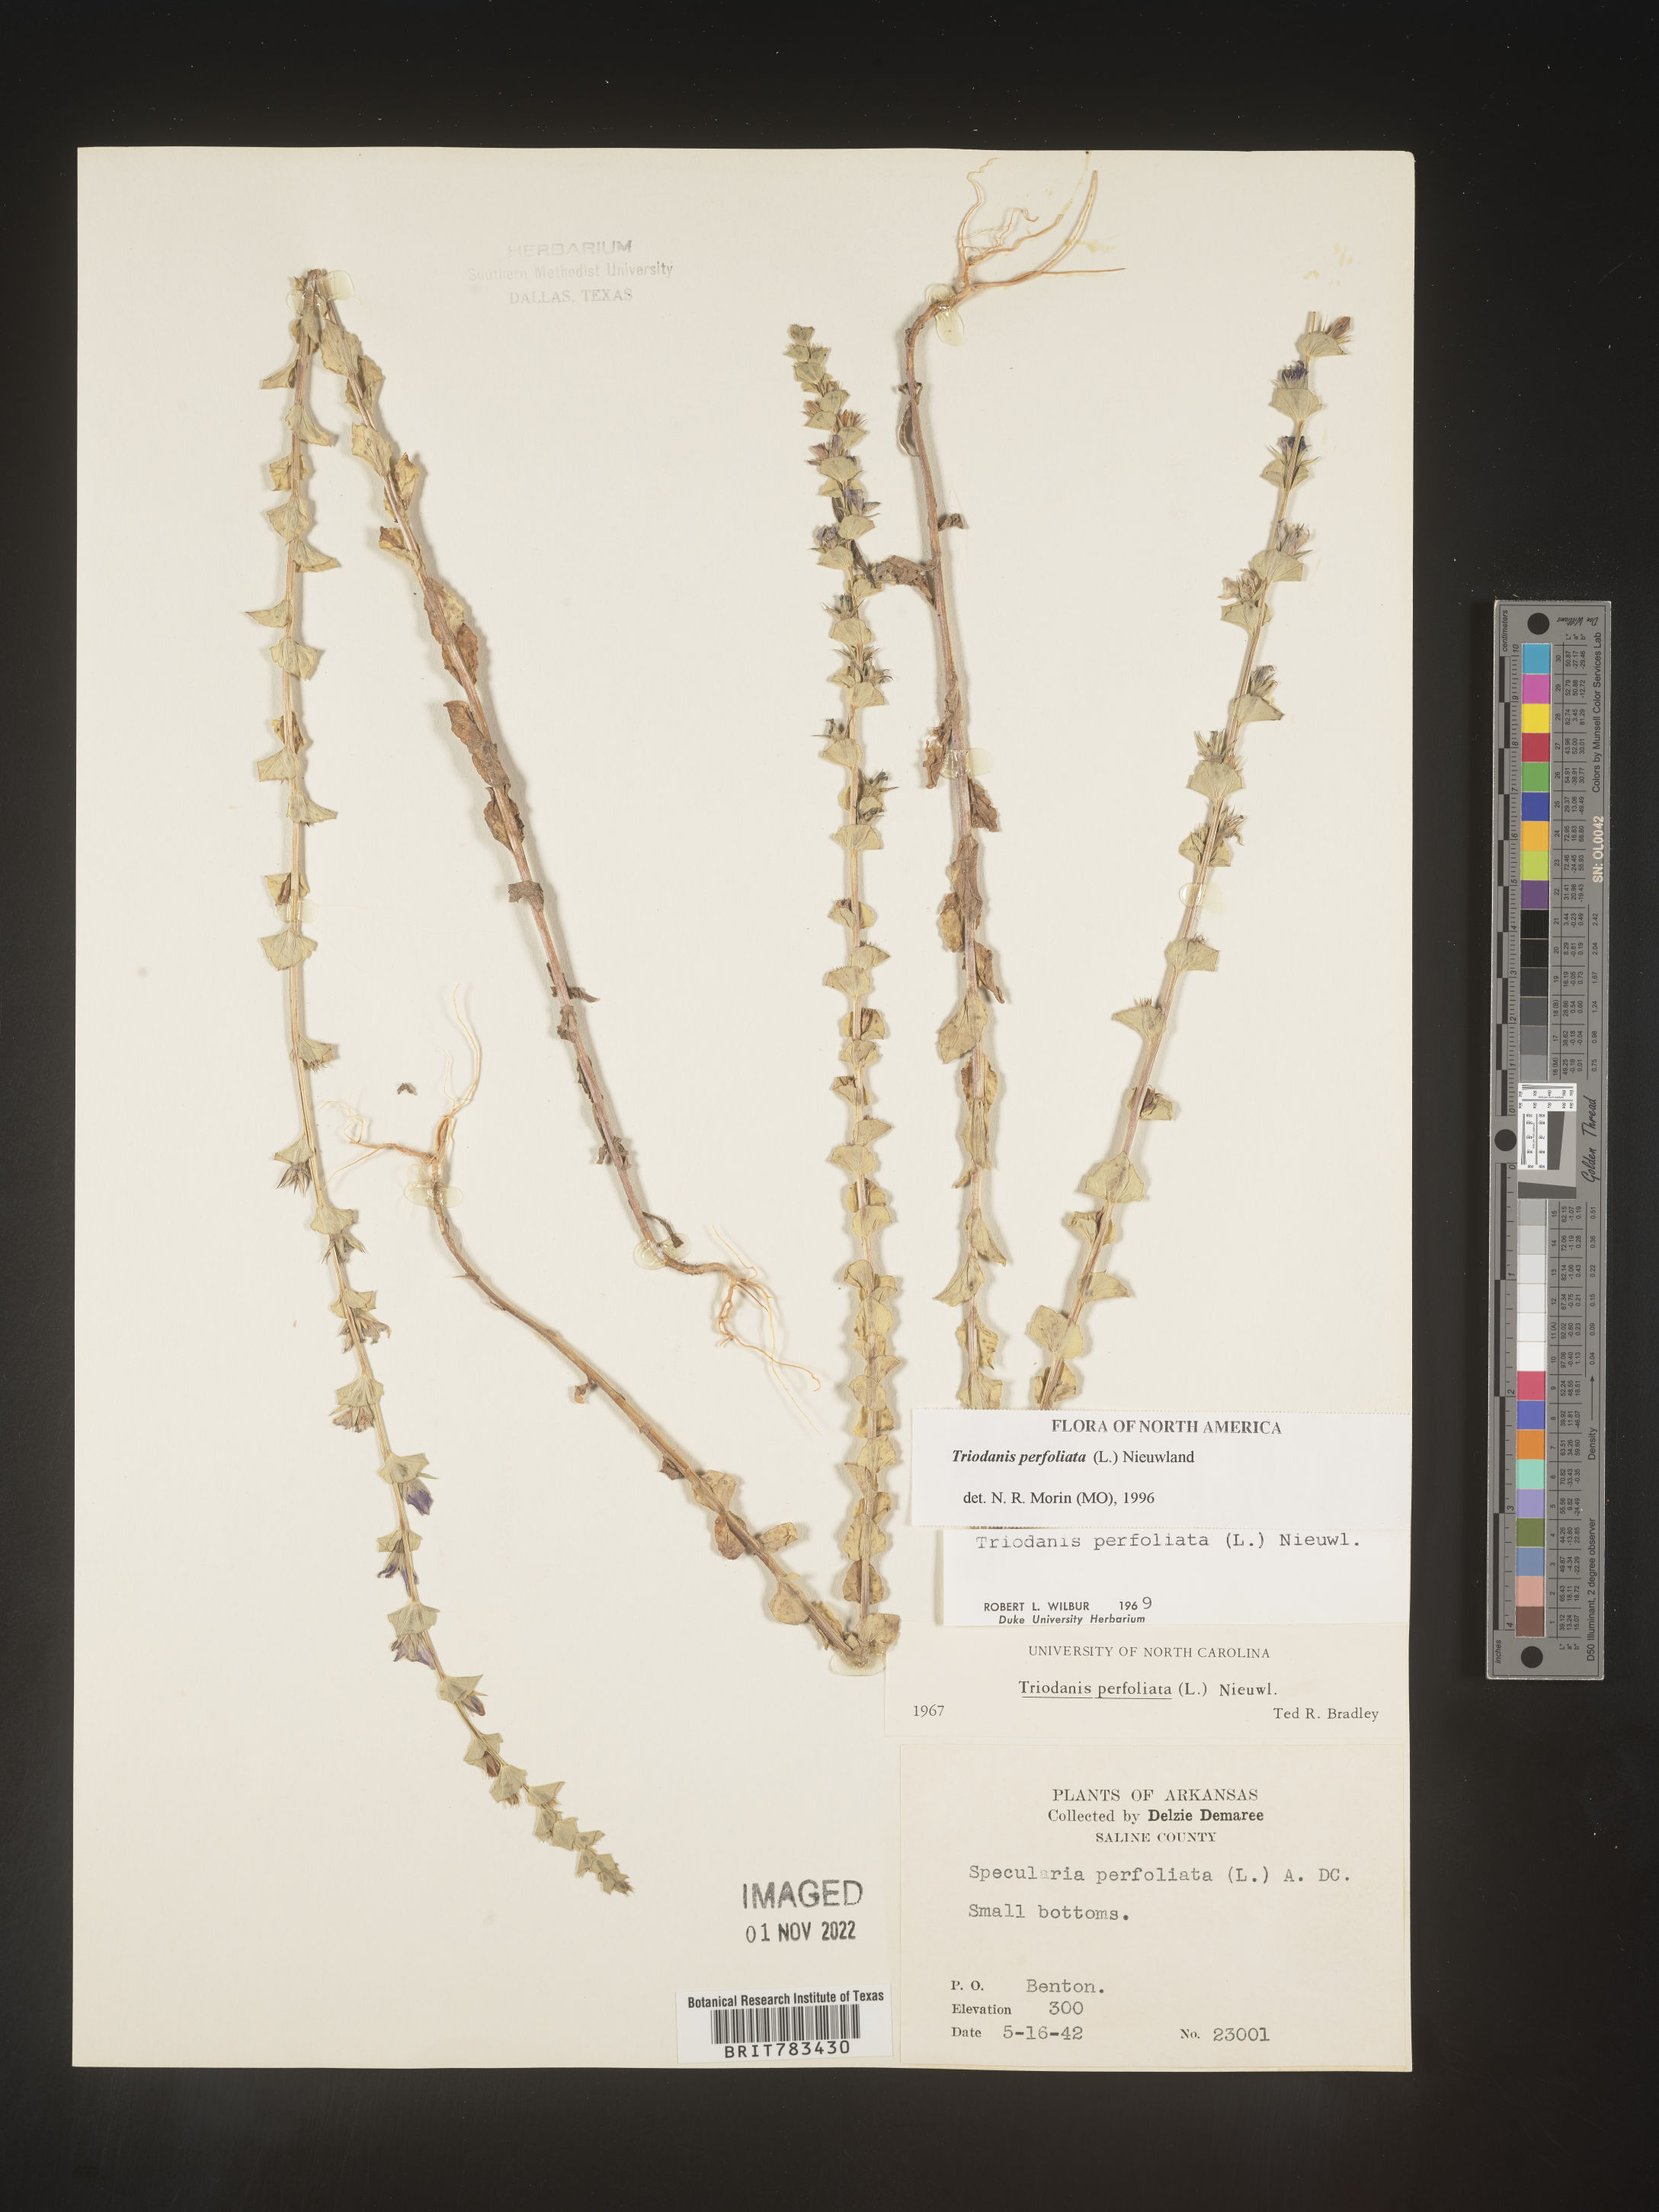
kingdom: Plantae
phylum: Tracheophyta
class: Magnoliopsida
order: Asterales
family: Campanulaceae
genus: Triodanis
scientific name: Triodanis perfoliata
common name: Clasping venus' looking-glass
